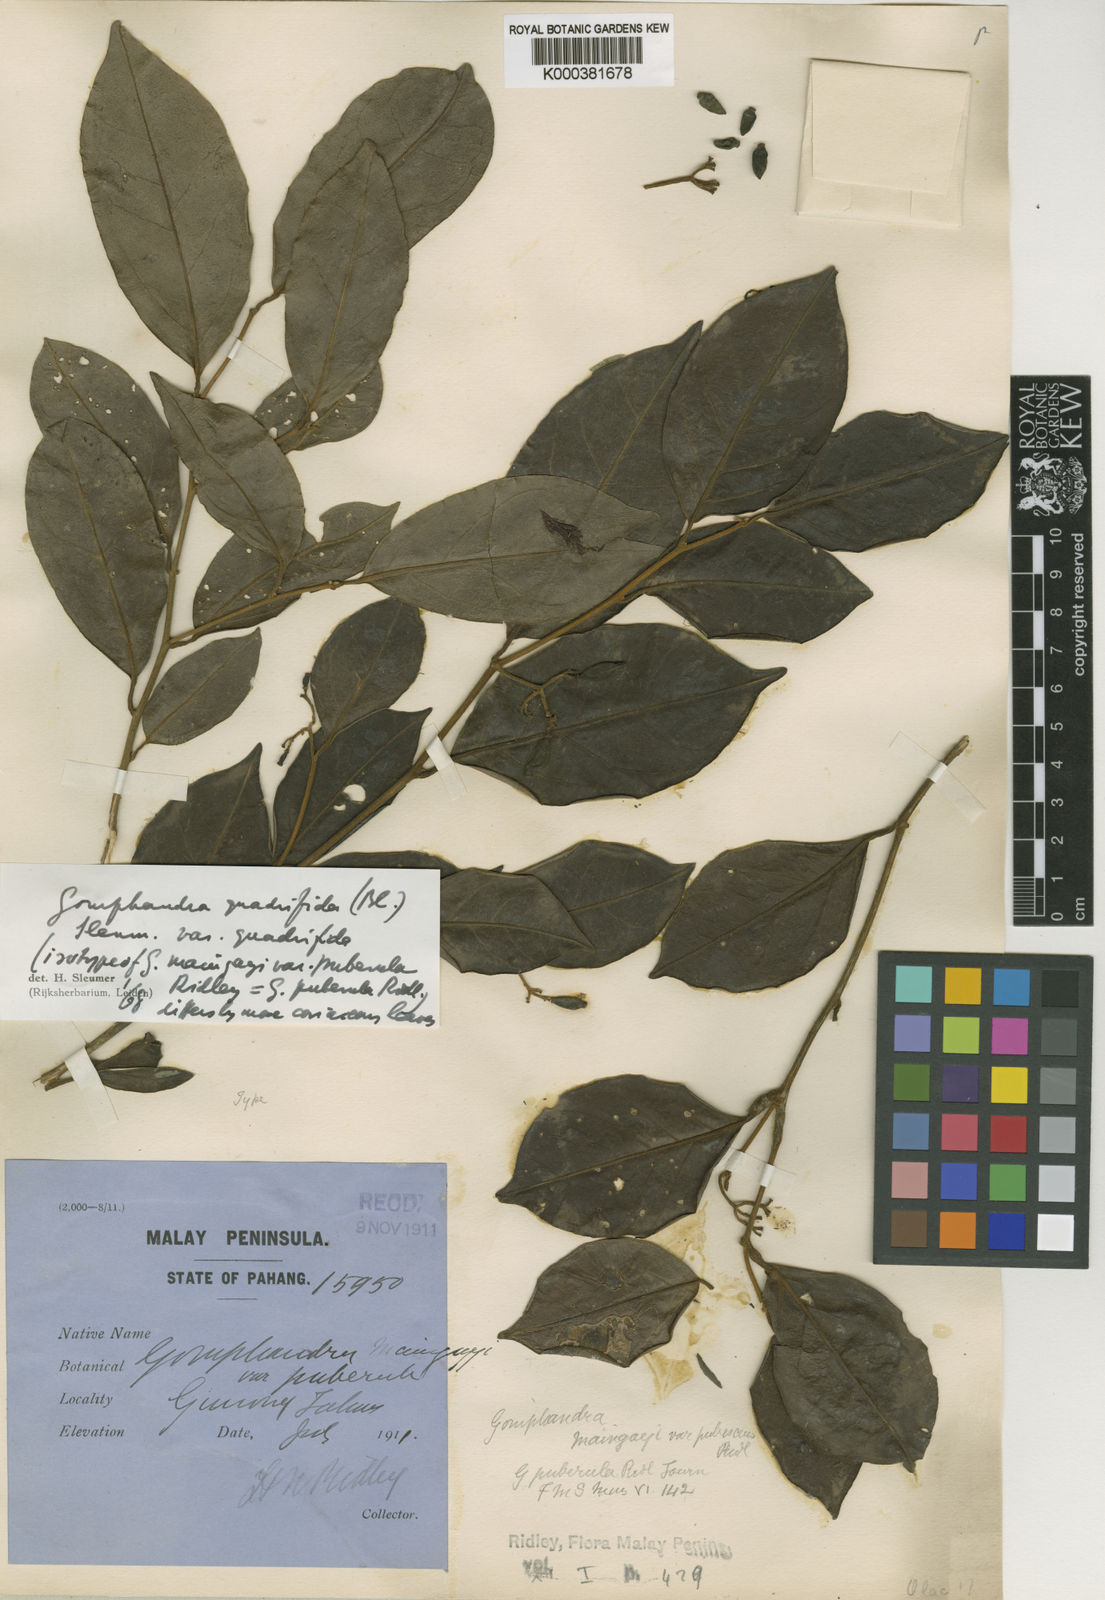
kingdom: Plantae
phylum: Tracheophyta
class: Magnoliopsida
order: Cardiopteridales
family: Stemonuraceae
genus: Gomphandra
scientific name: Gomphandra quadrifida
